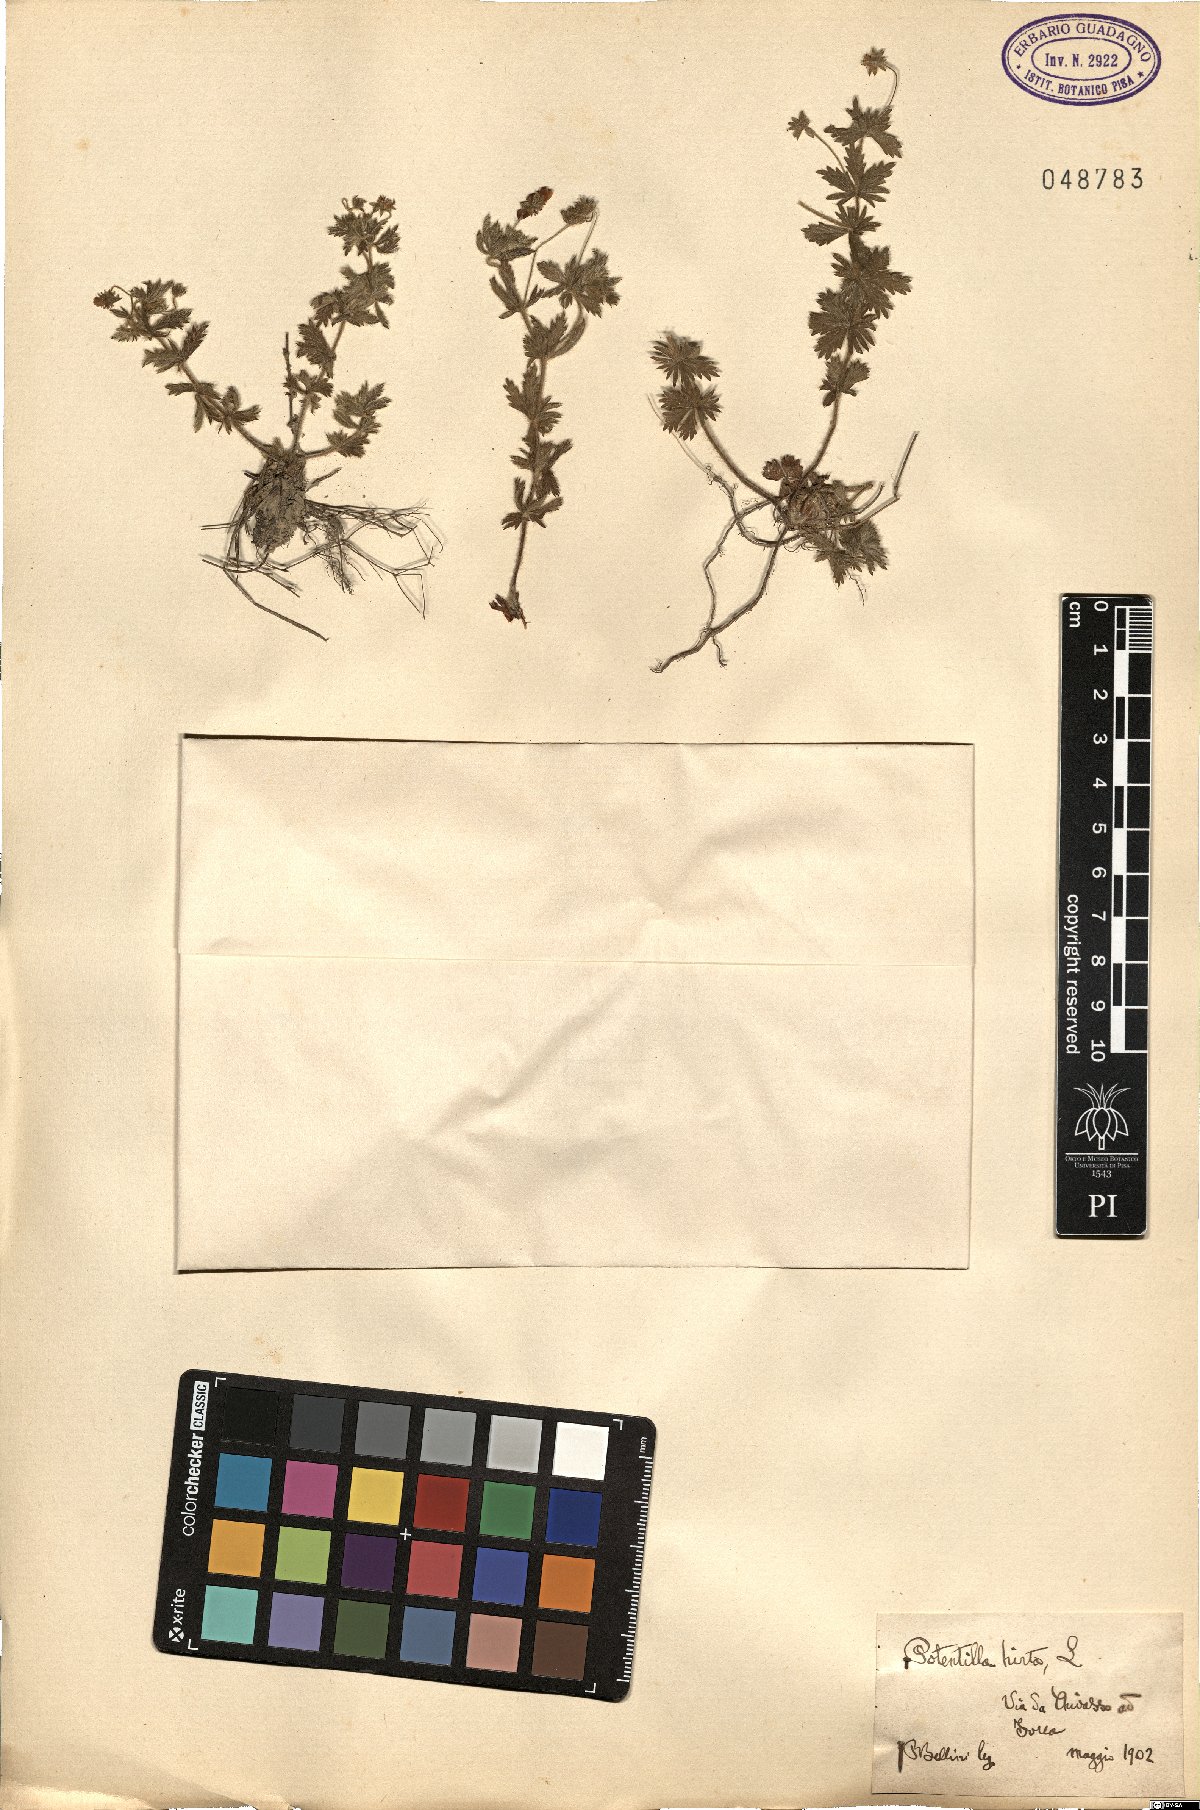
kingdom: Plantae
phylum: Tracheophyta
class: Magnoliopsida
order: Rosales
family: Rosaceae
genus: Potentilla
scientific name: Potentilla hirta
